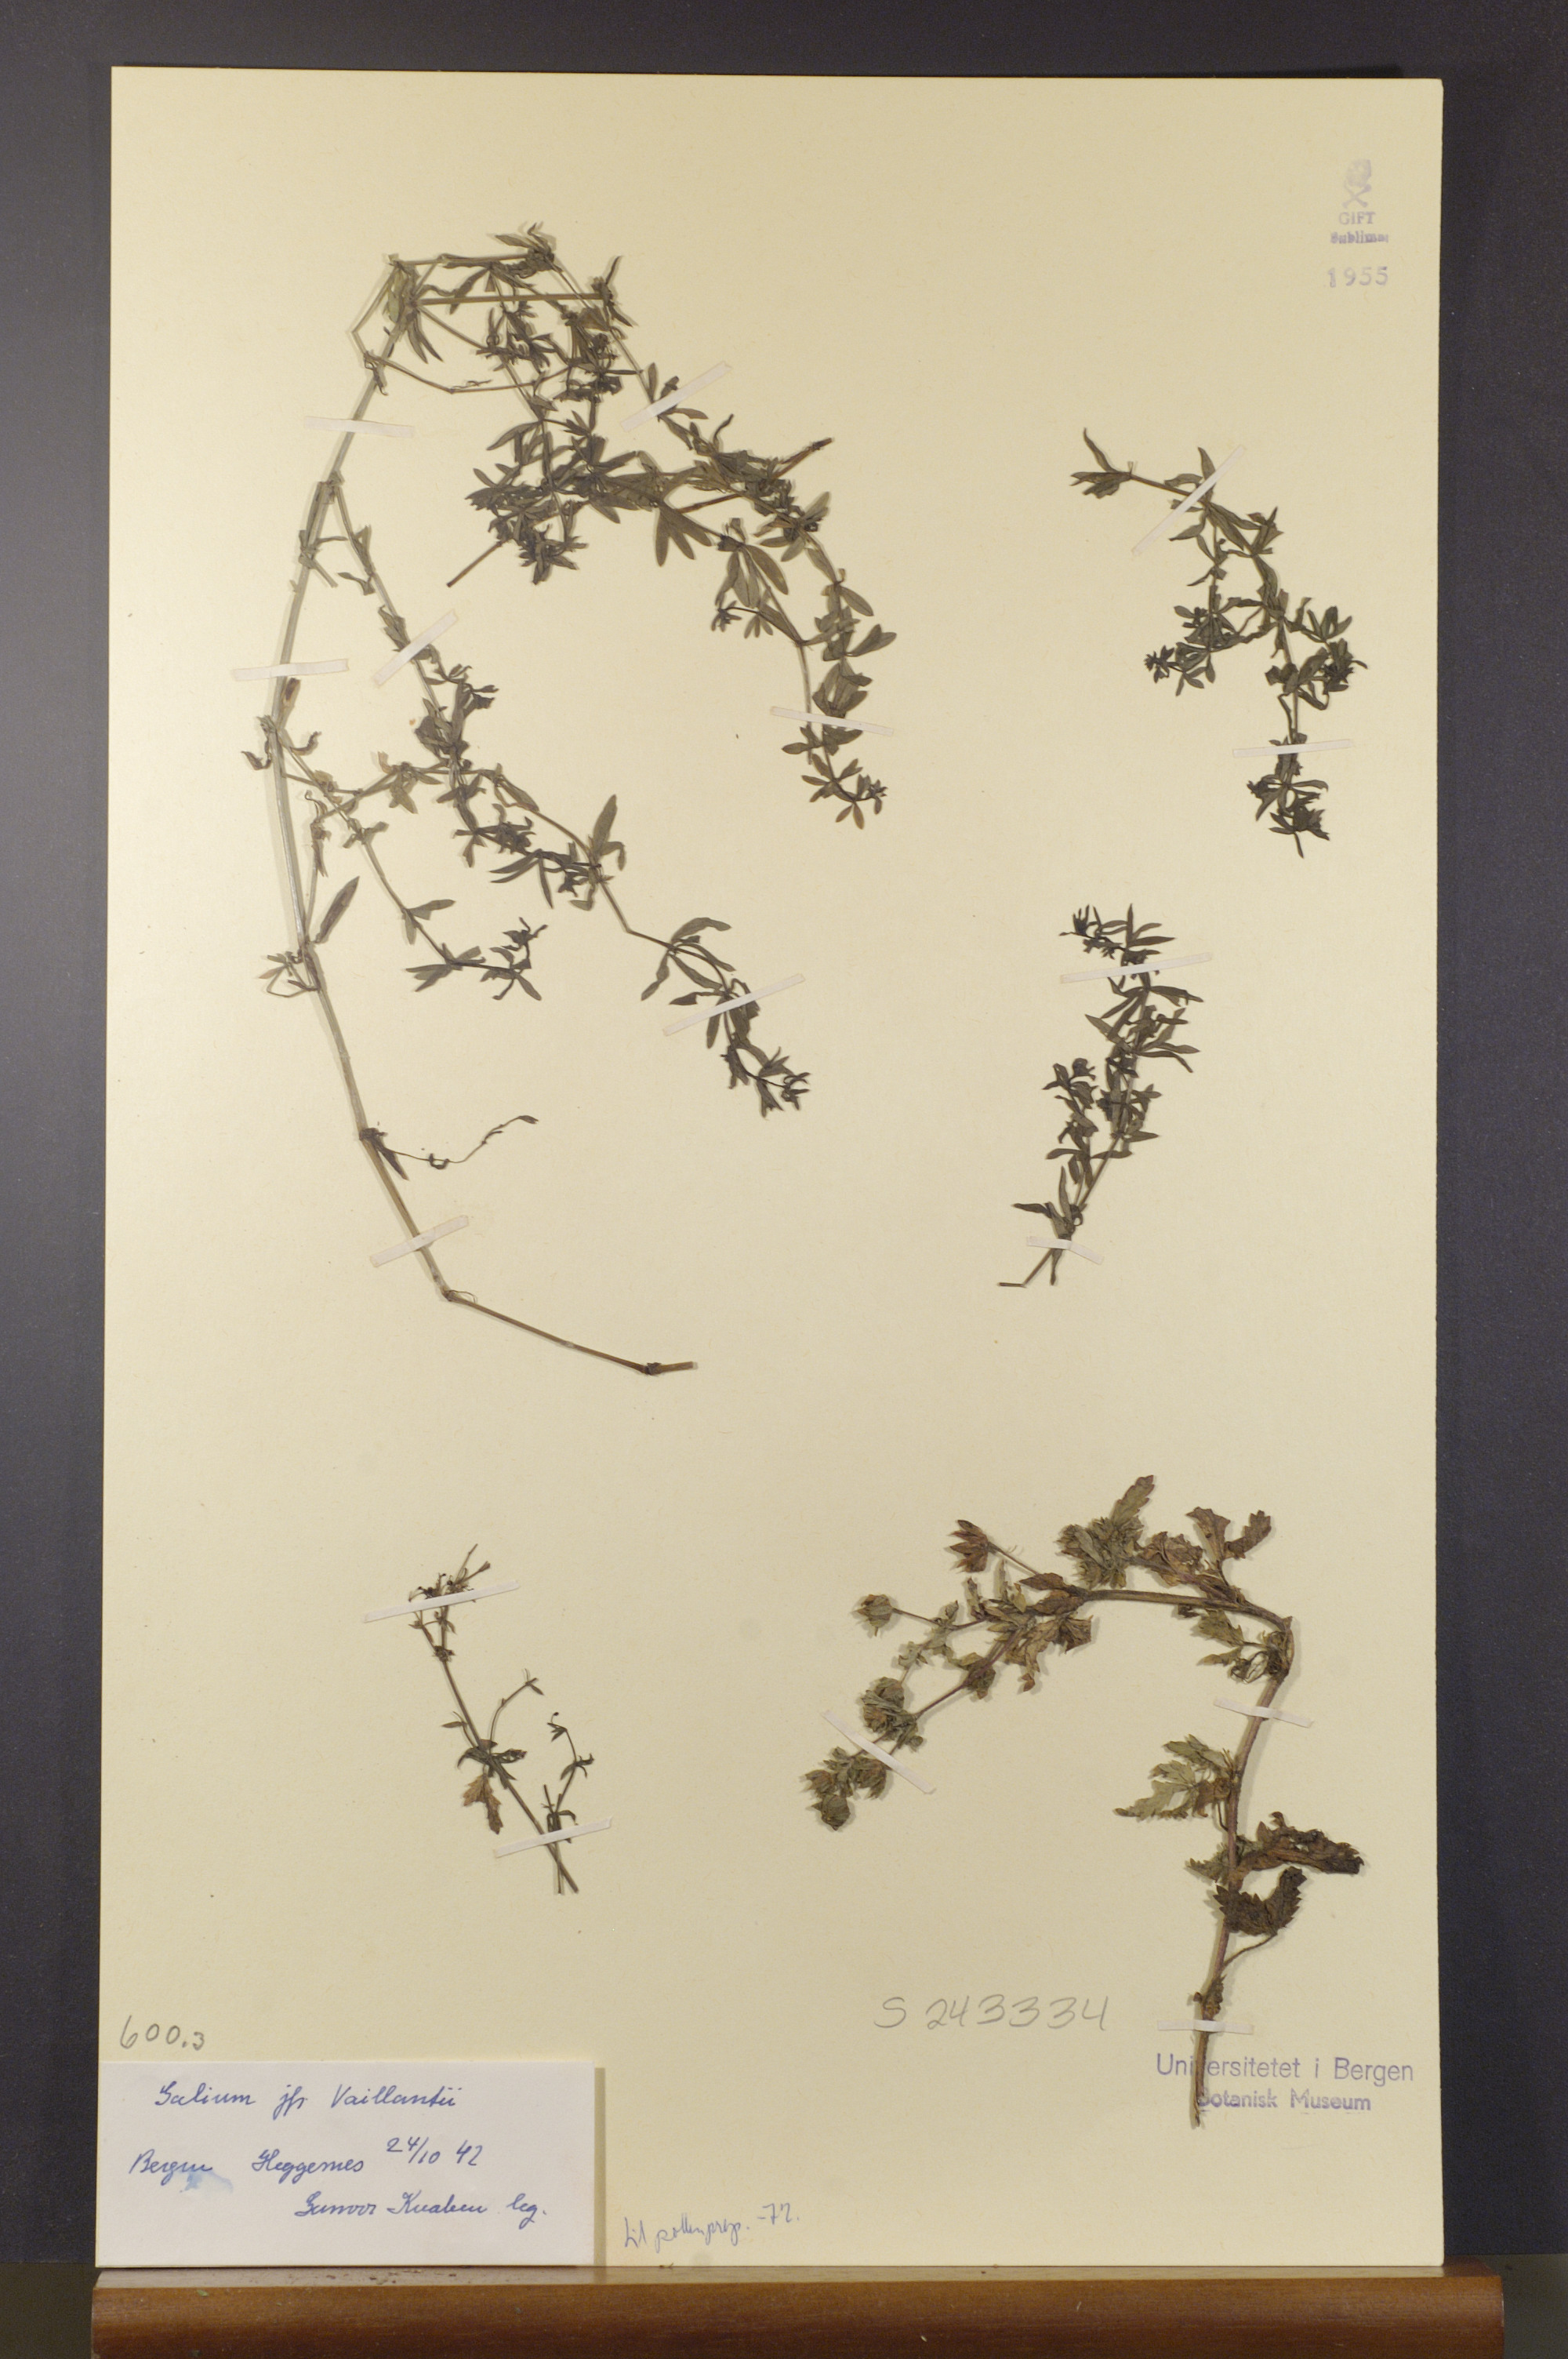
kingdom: Plantae
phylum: Tracheophyta
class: Magnoliopsida
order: Gentianales
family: Rubiaceae
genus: Galium
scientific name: Galium spurium
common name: False cleavers
